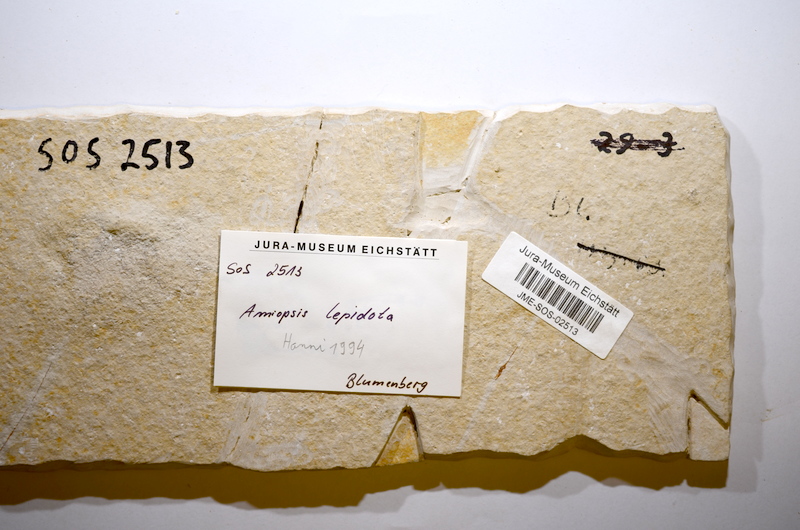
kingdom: Animalia
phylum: Chordata
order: Amiiformes
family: Amiidae
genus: Amiopsis
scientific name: Amiopsis lepidota
